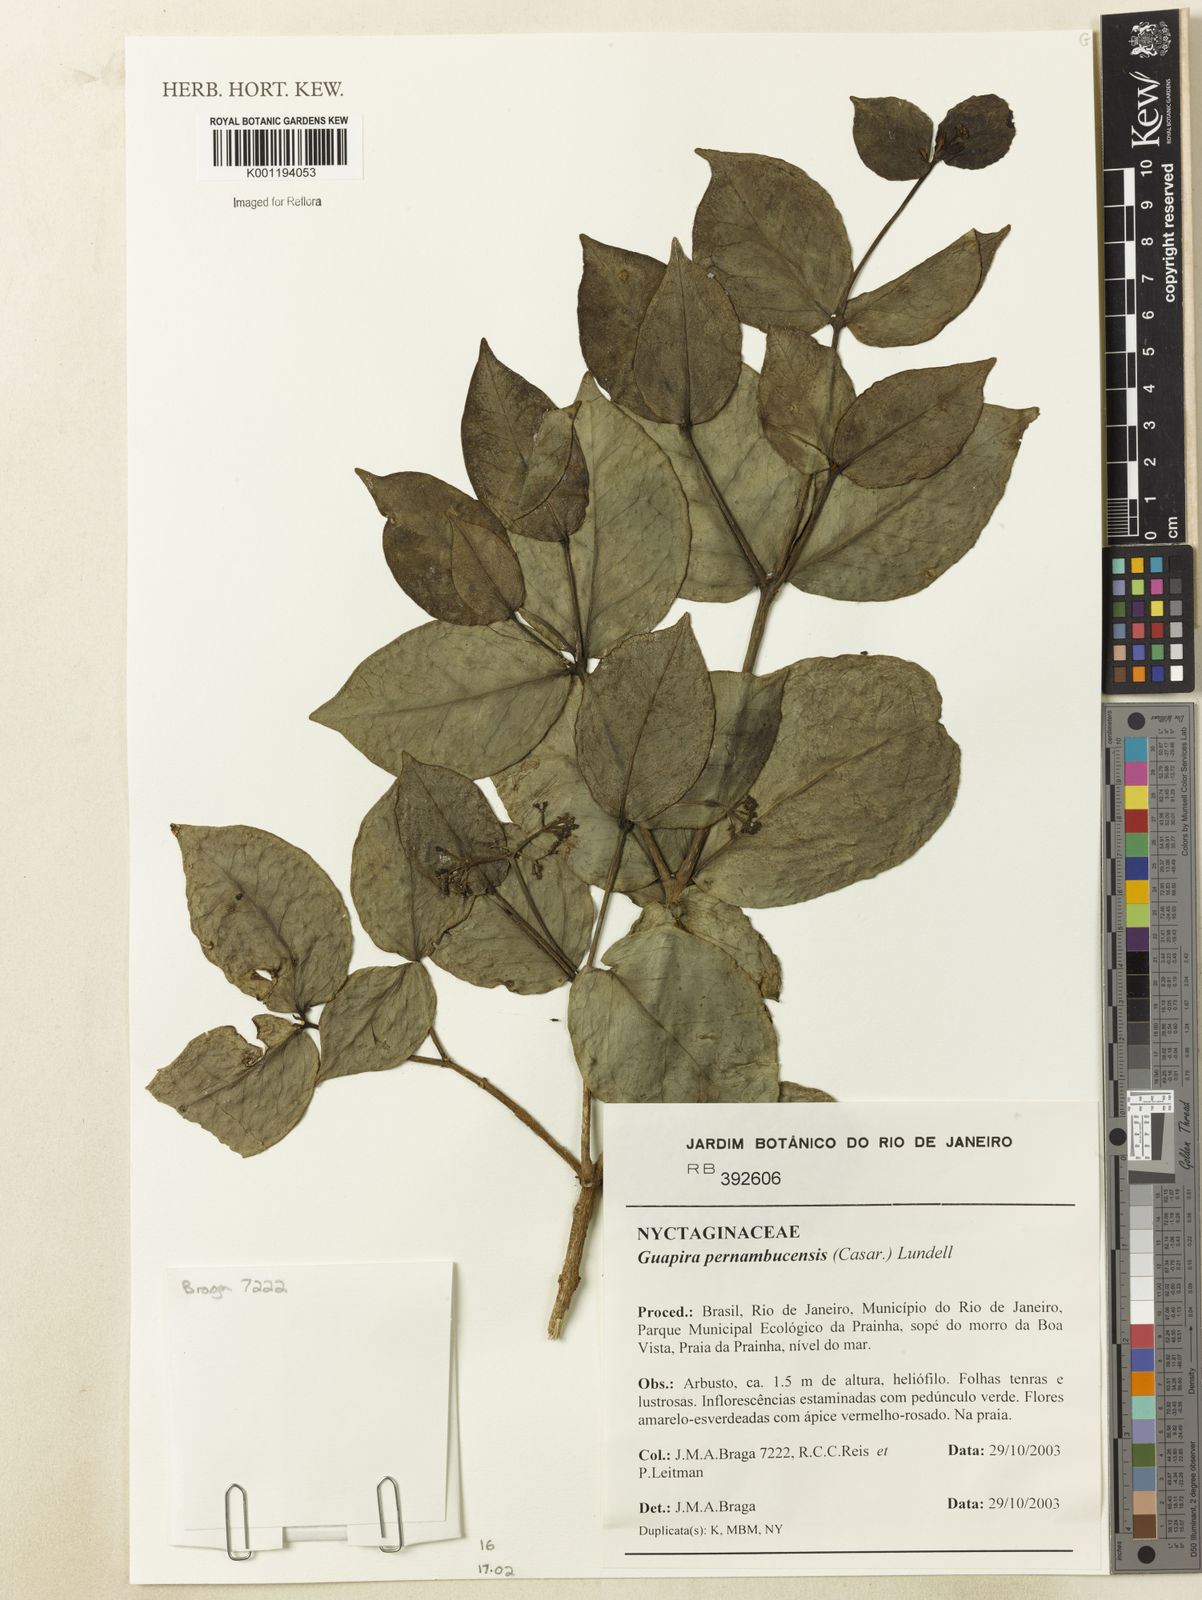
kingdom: Plantae
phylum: Tracheophyta
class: Magnoliopsida
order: Caryophyllales
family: Nyctaginaceae
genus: Guapira
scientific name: Guapira pernambucensis
